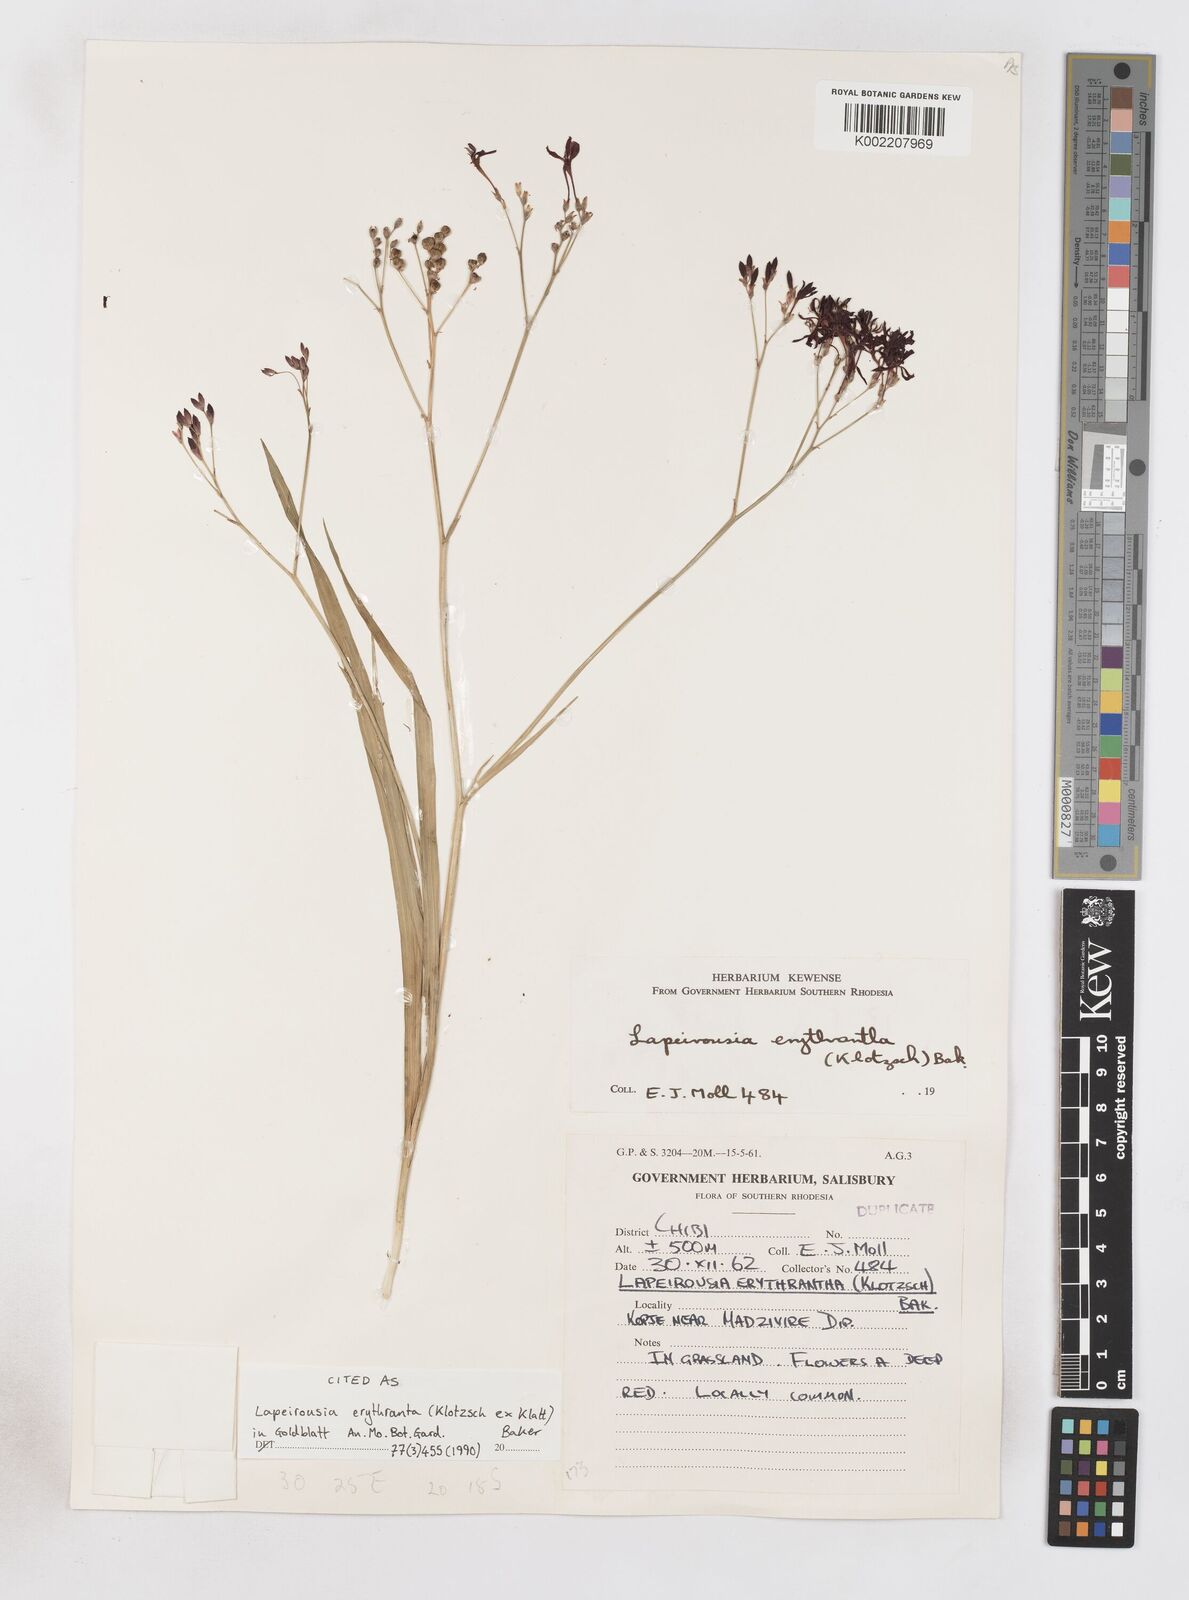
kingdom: Plantae
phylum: Tracheophyta
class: Liliopsida
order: Asparagales
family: Iridaceae
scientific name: Iridaceae
